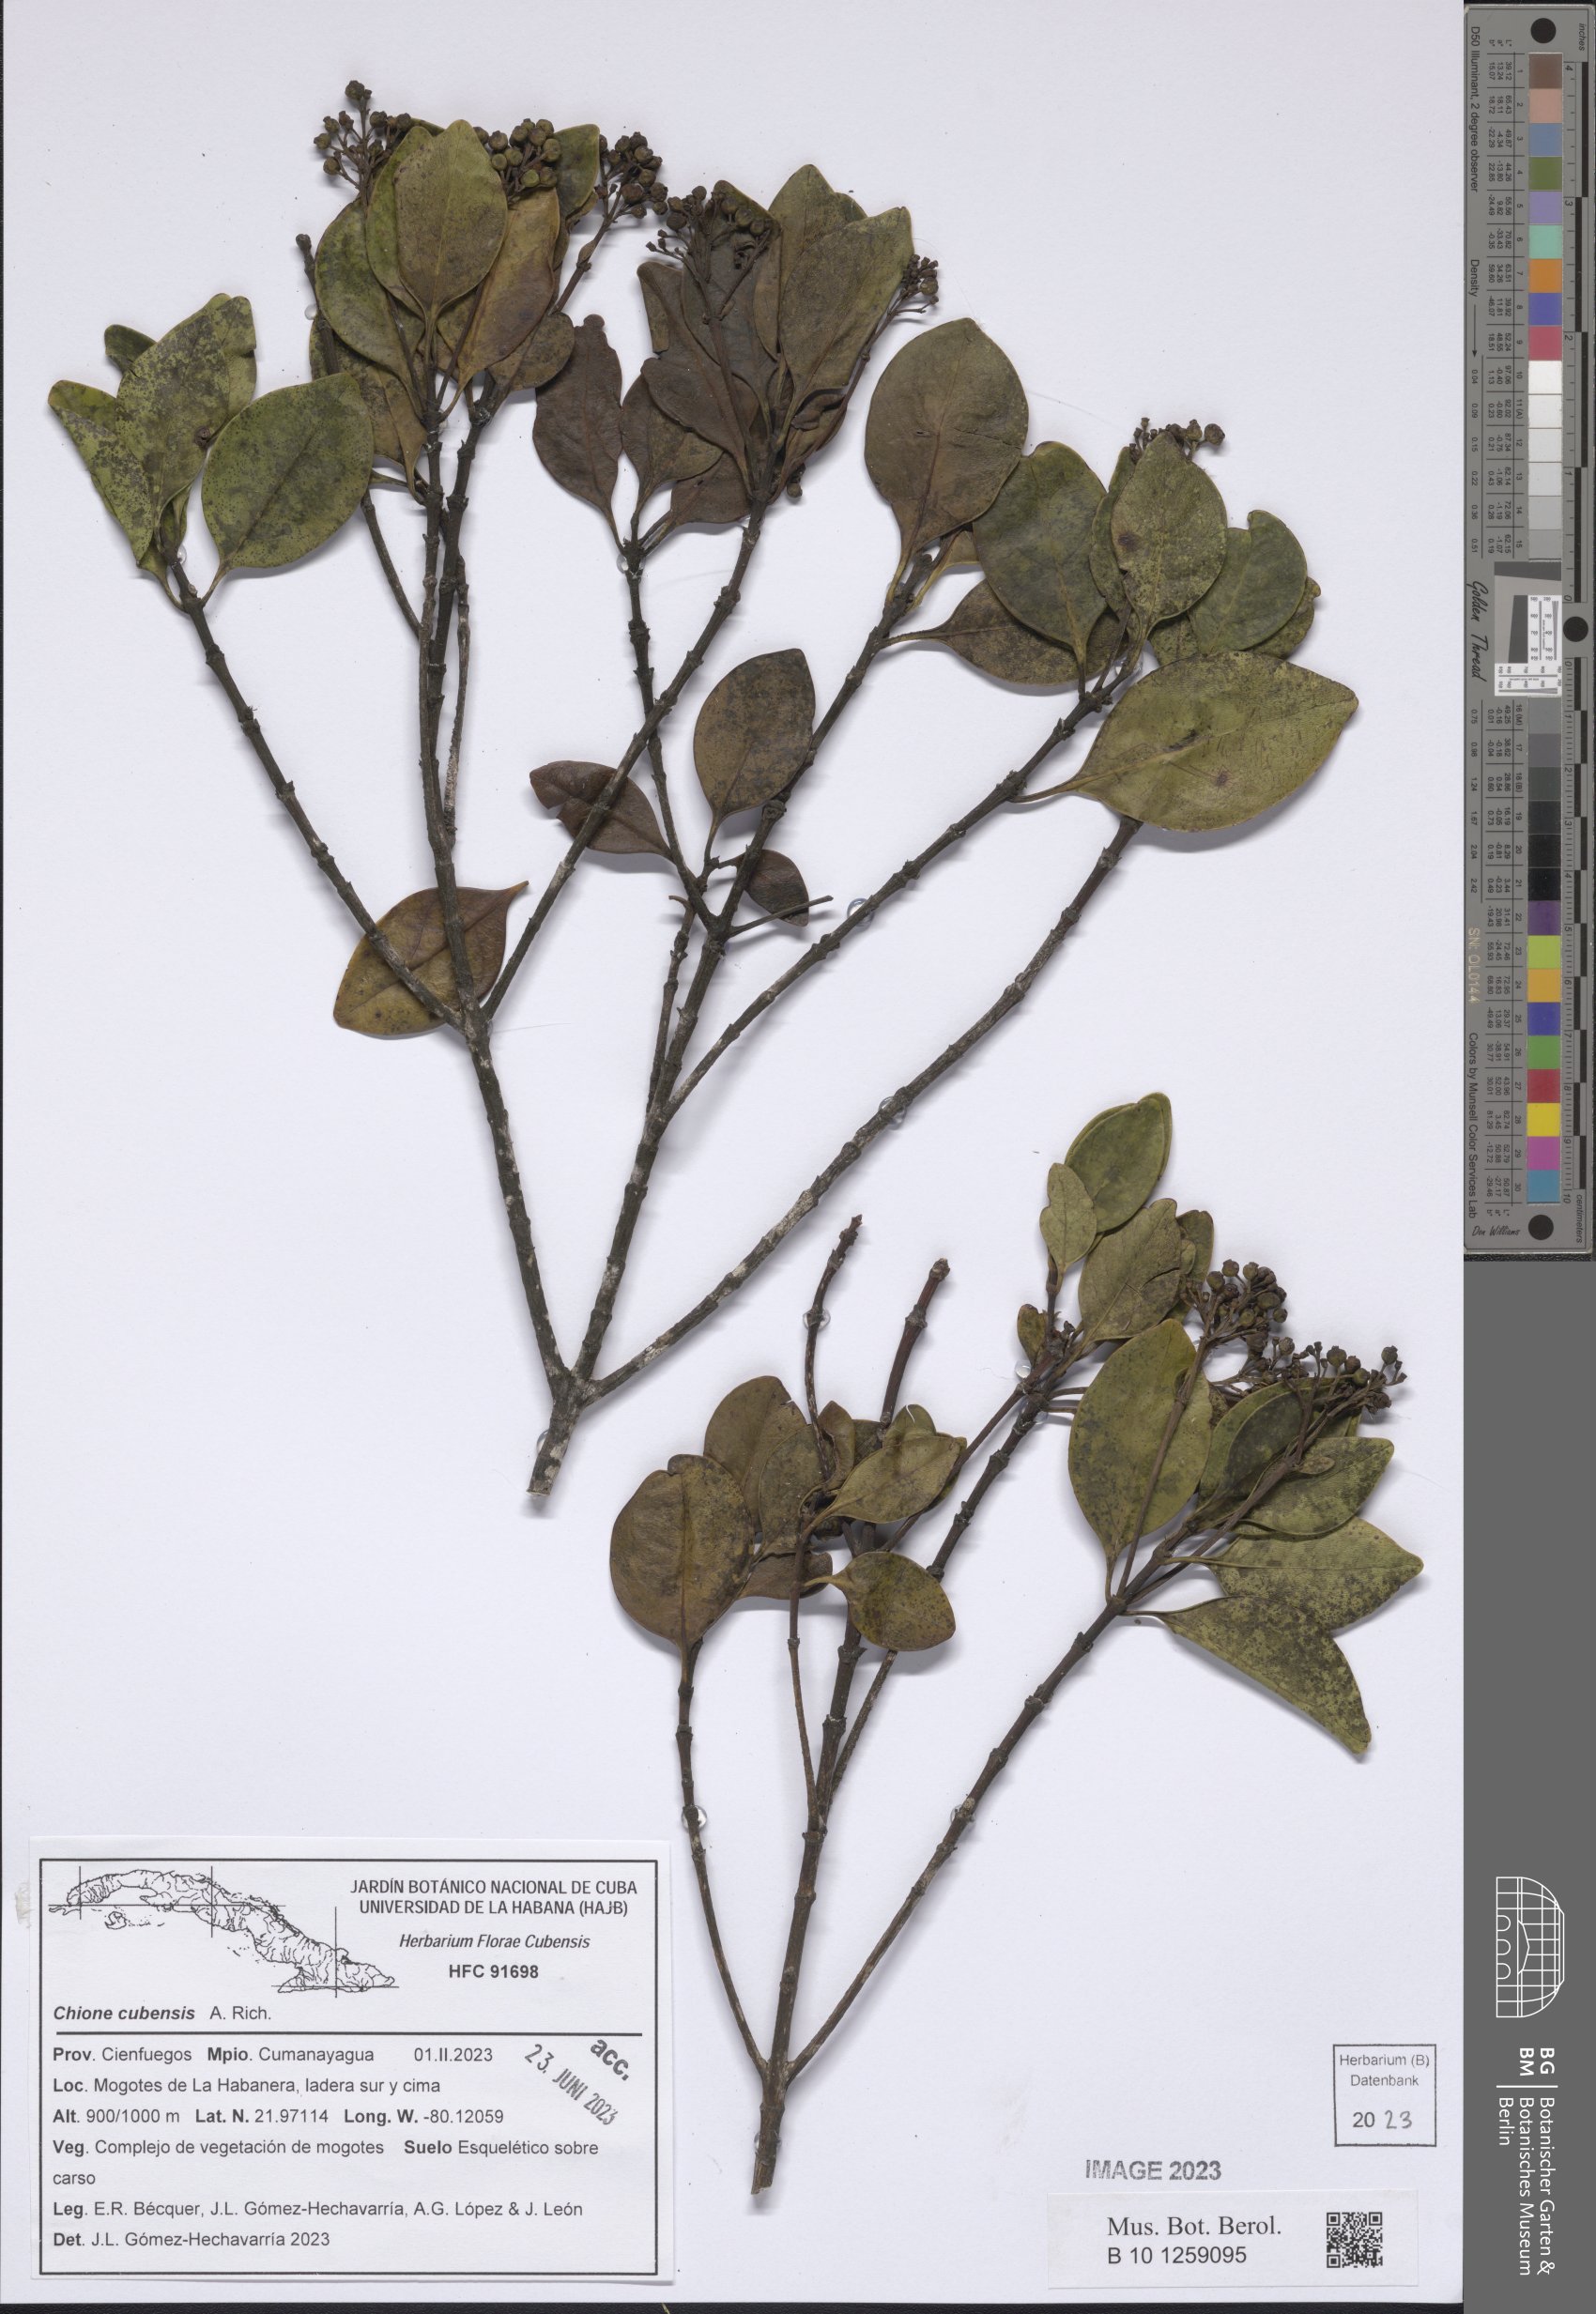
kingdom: Plantae
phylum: Tracheophyta
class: Magnoliopsida
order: Gentianales
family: Rubiaceae
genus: Chione
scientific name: Chione venosa
